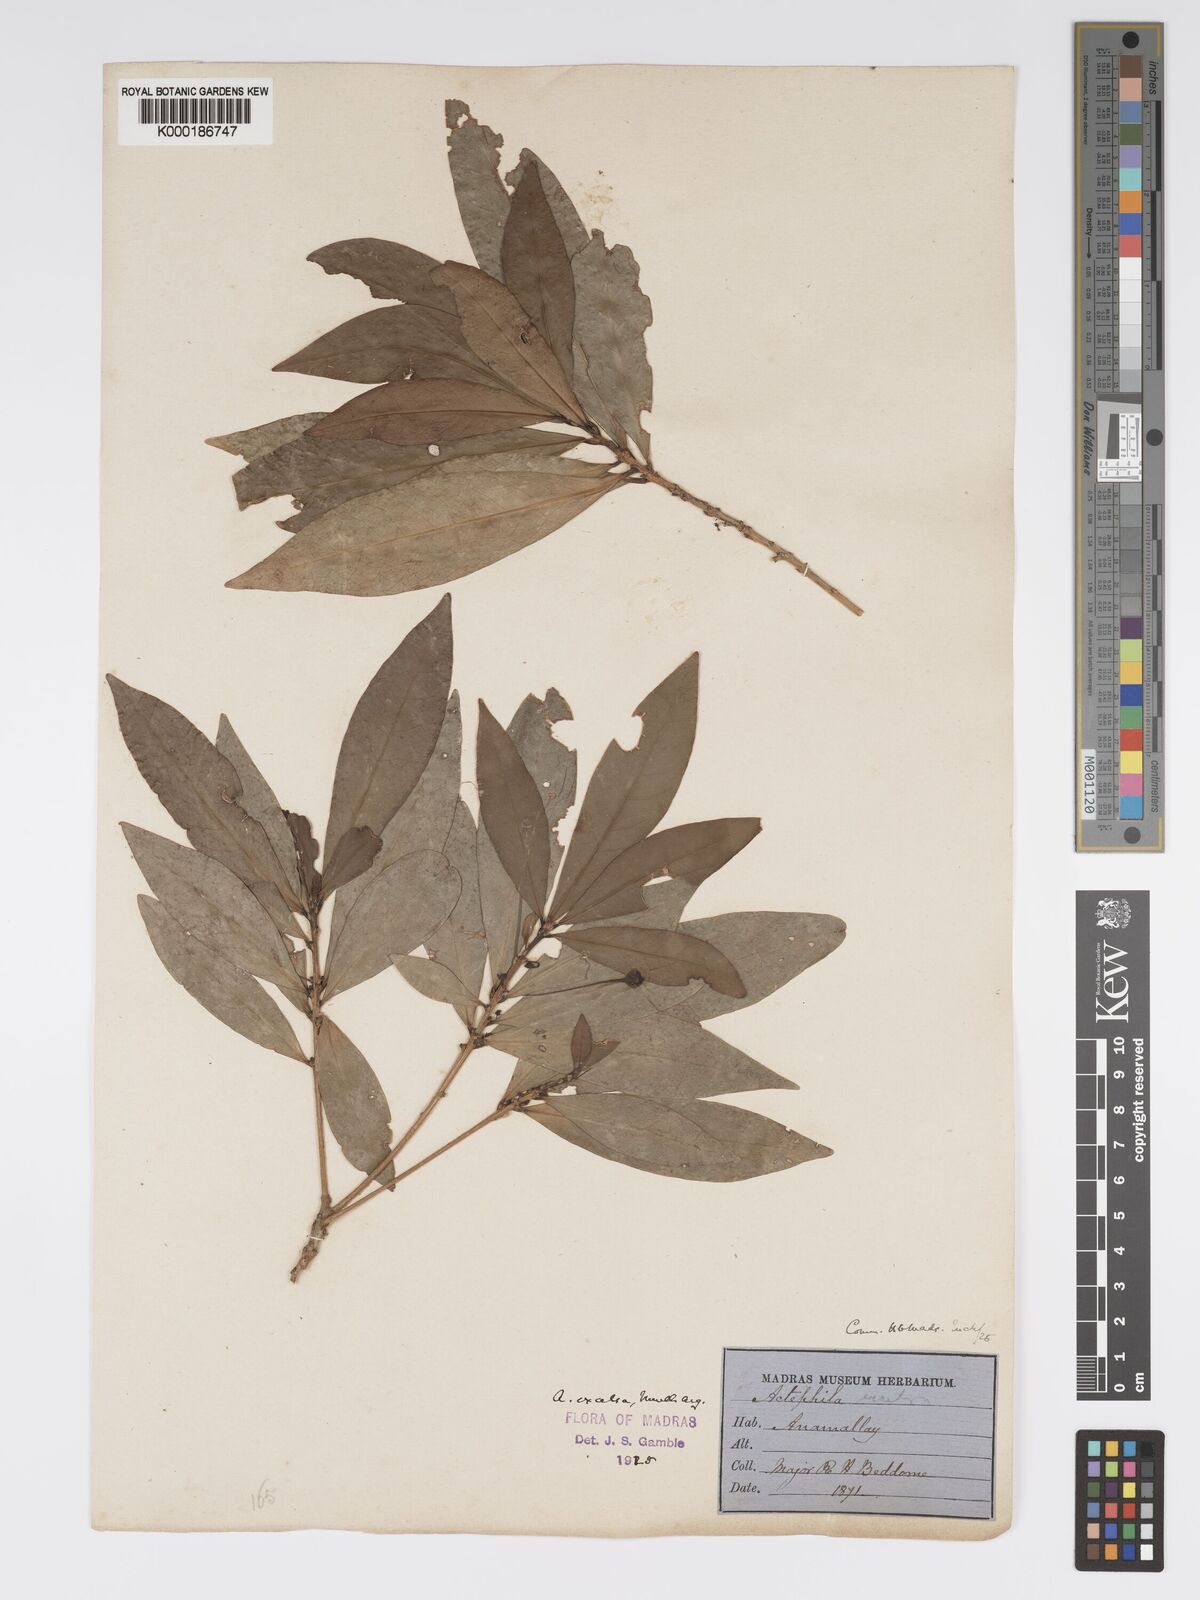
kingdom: Plantae
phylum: Tracheophyta
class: Magnoliopsida
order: Malpighiales
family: Phyllanthaceae
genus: Actephila
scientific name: Actephila excelsa
